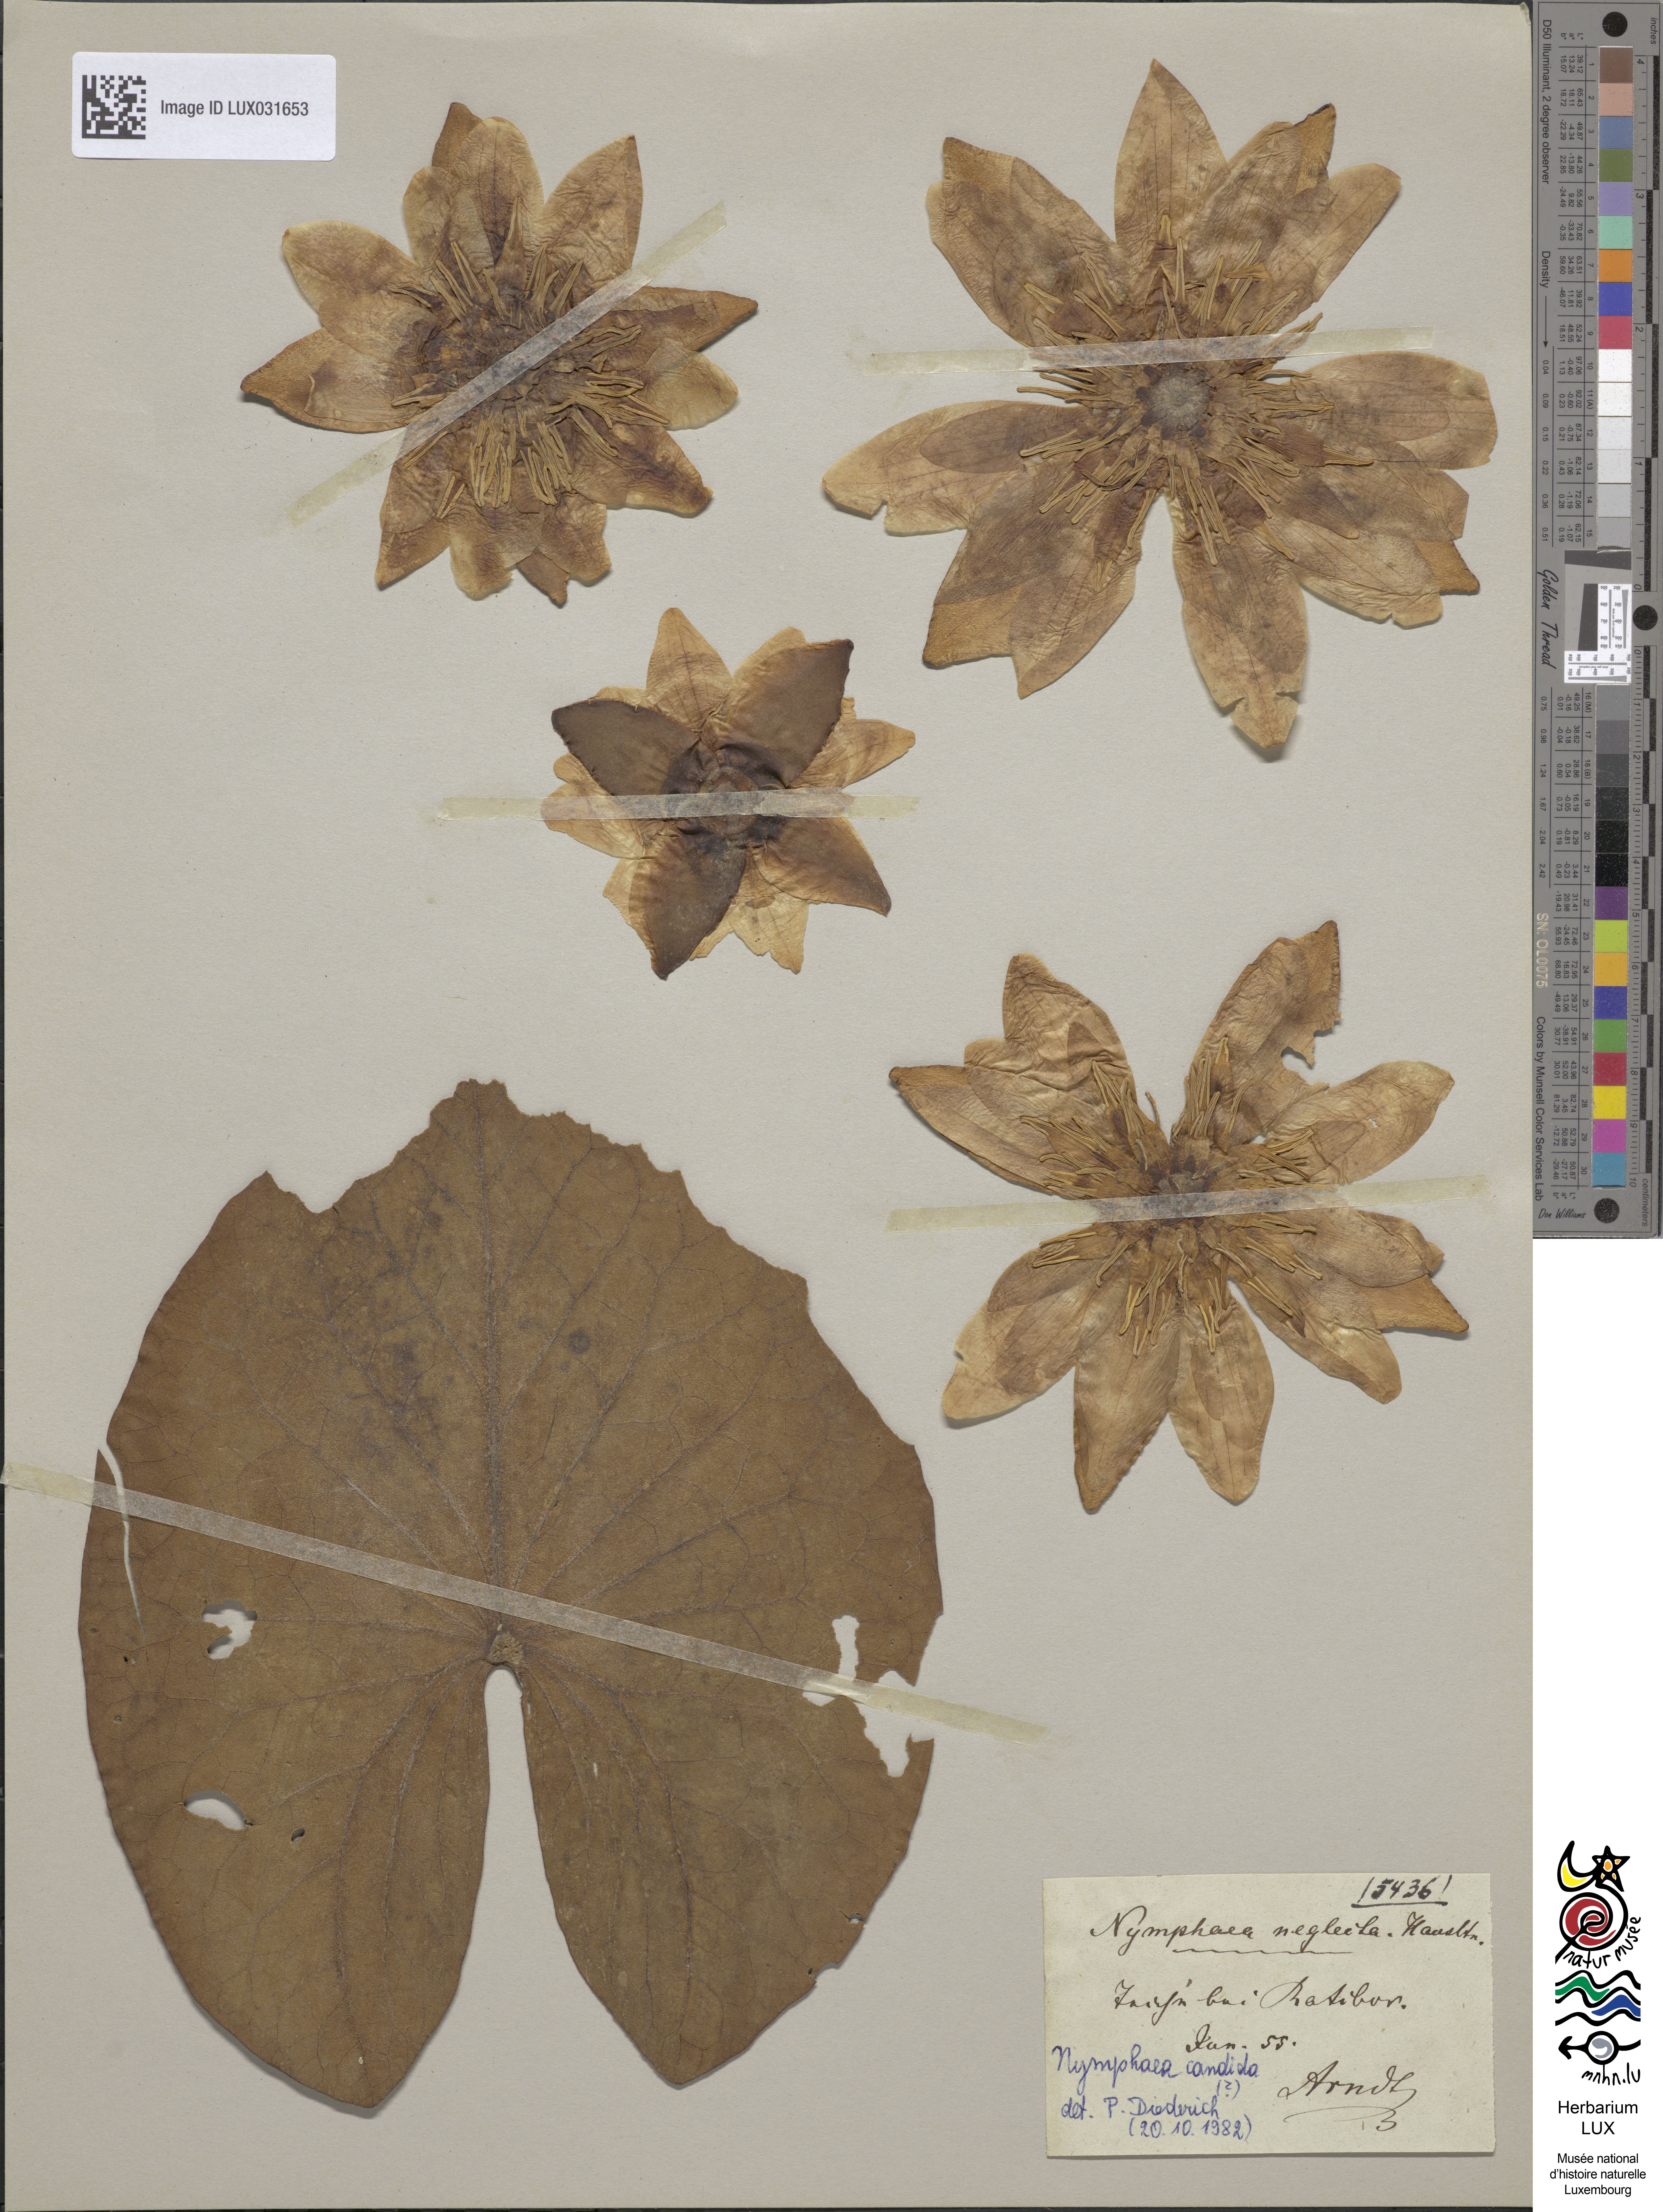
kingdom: Plantae
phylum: Tracheophyta
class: Magnoliopsida
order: Nymphaeales
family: Nymphaeaceae
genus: Nymphaea
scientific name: Nymphaea alba
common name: White water-lily
